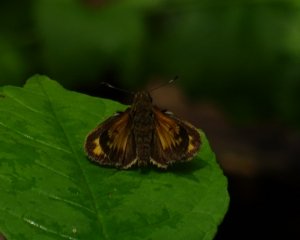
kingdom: Animalia
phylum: Arthropoda
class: Insecta
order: Lepidoptera
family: Hesperiidae
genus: Lon
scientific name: Lon hobomok
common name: Hobomok Skipper
